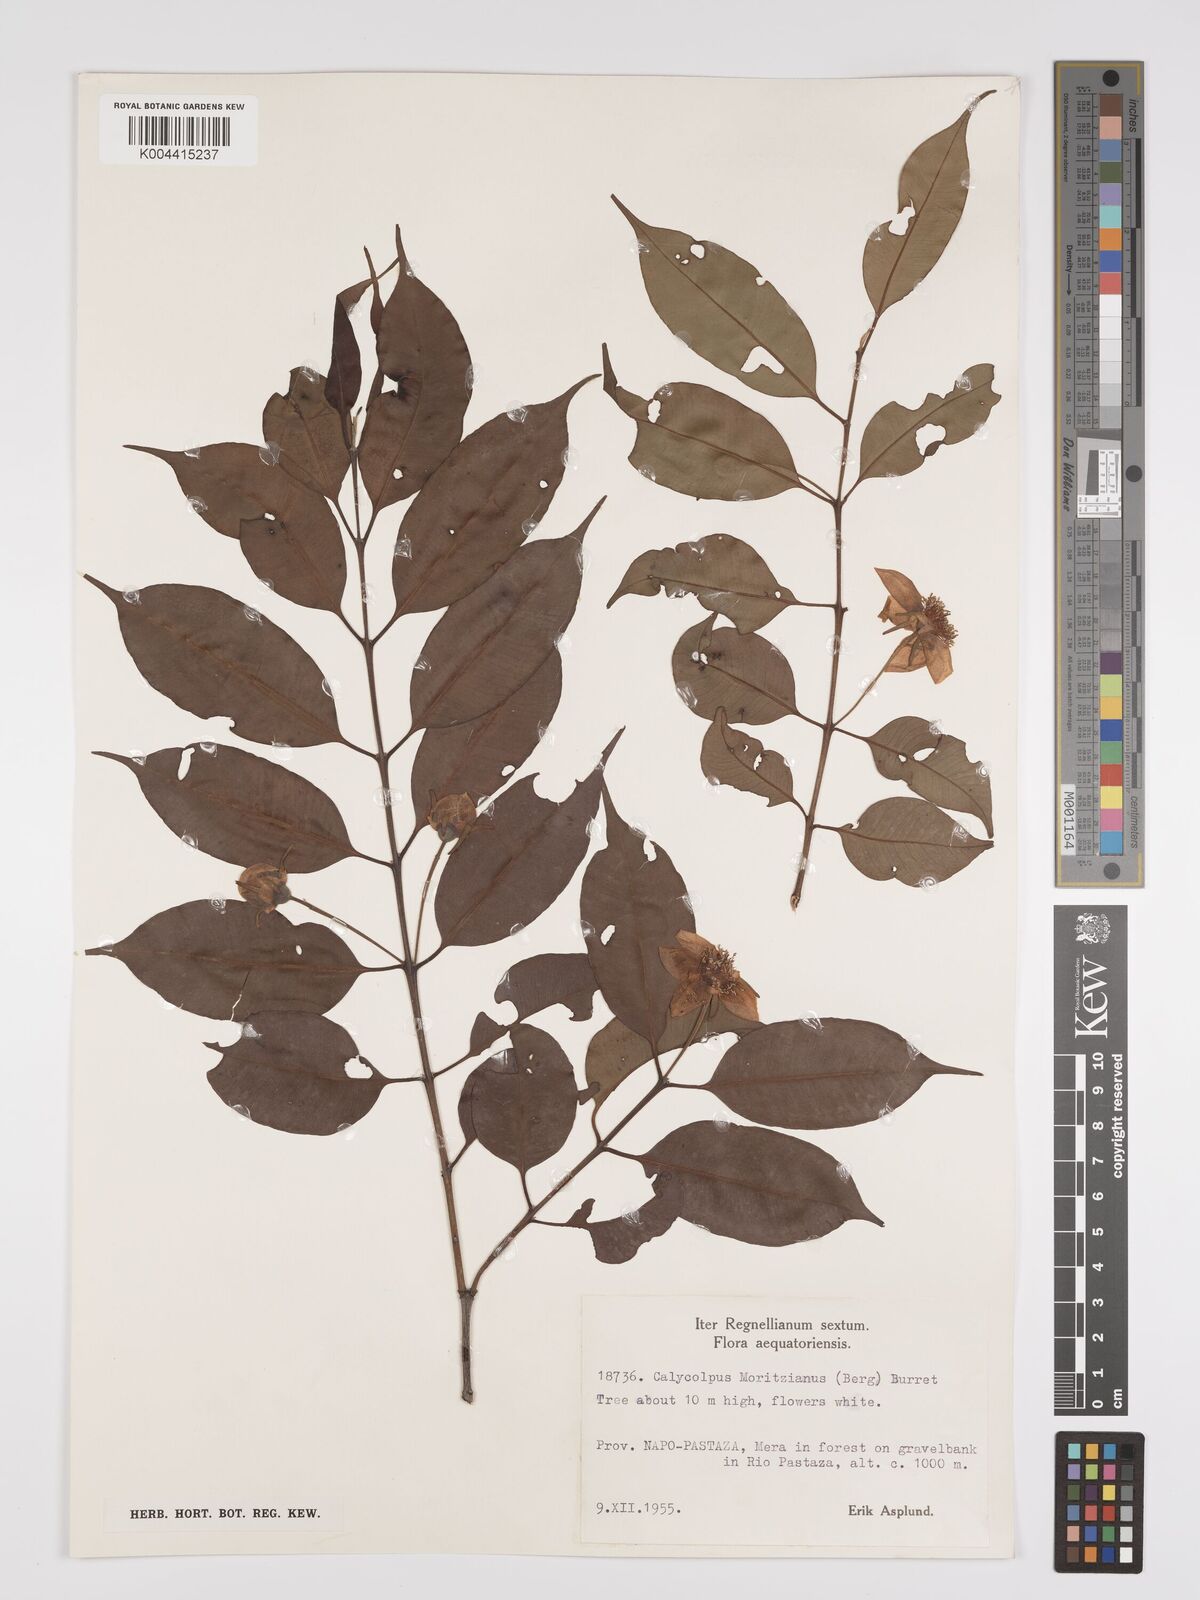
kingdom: Plantae
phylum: Tracheophyta
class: Magnoliopsida
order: Myrtales
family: Myrtaceae
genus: Calycolpus
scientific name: Calycolpus moritzianus
